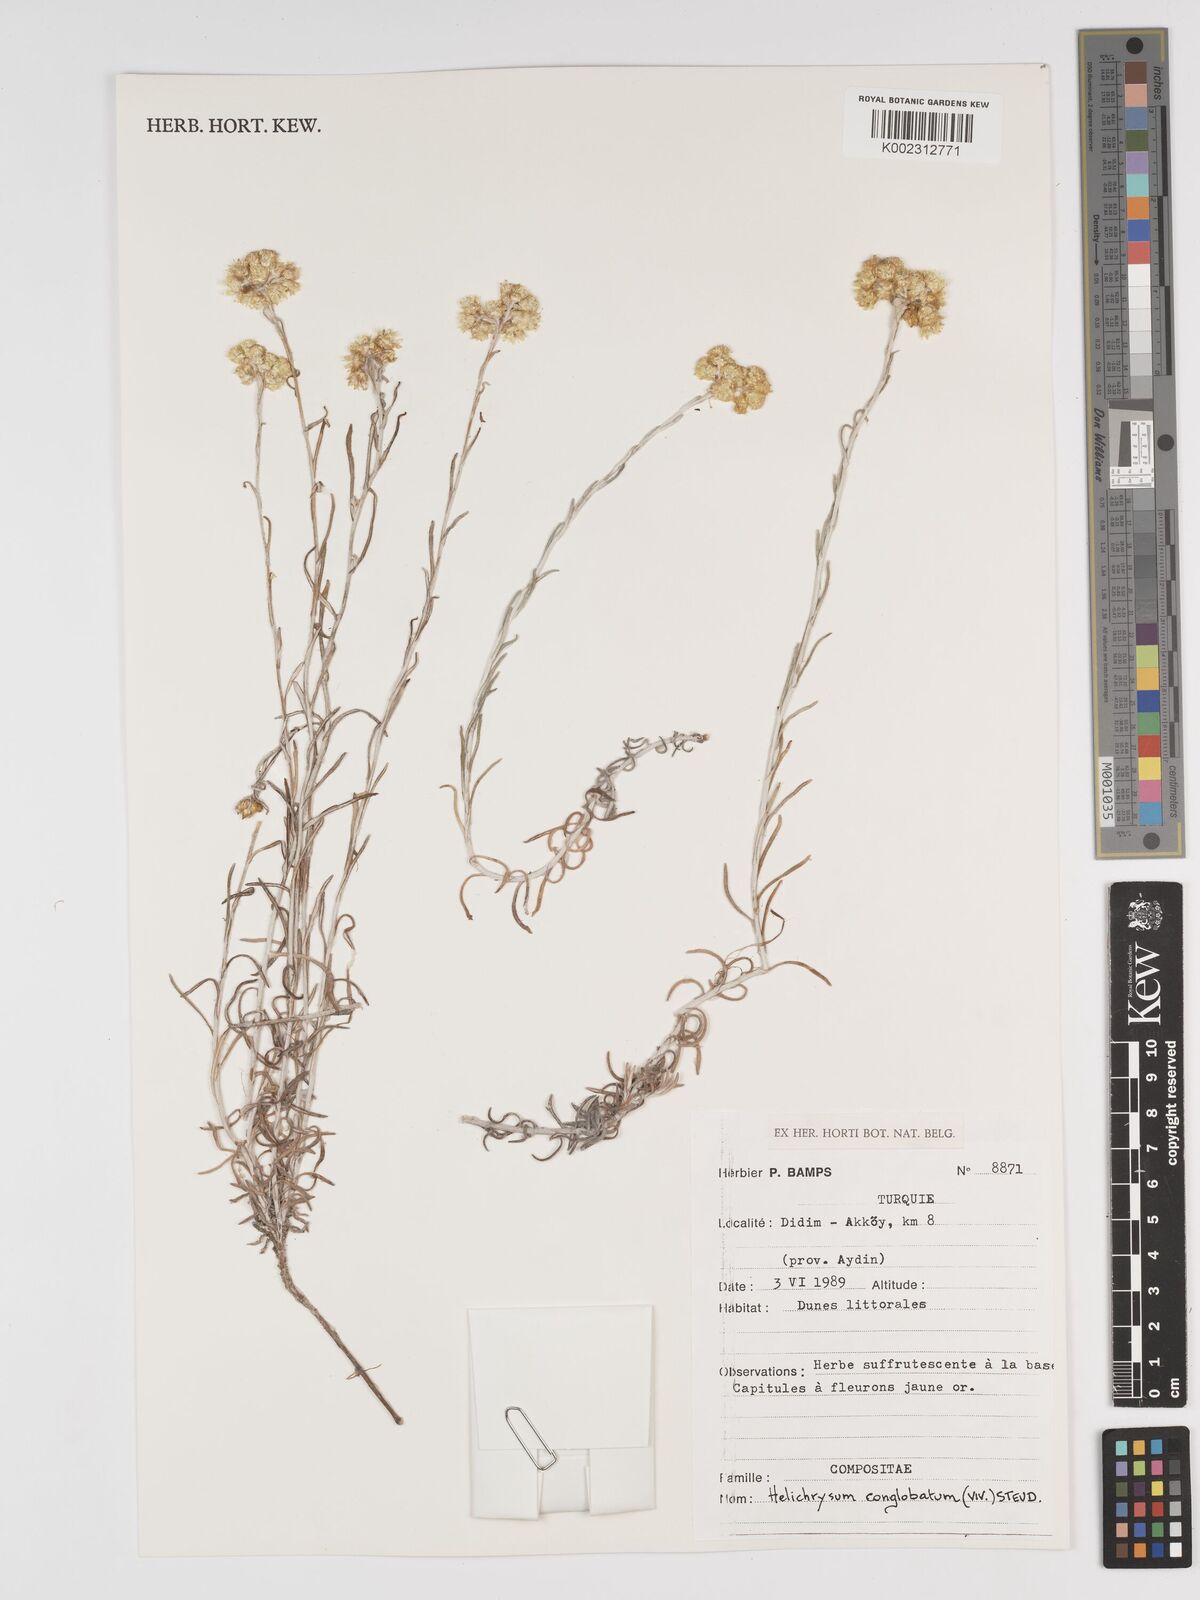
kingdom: Plantae
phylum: Tracheophyta
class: Magnoliopsida
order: Asterales
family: Asteraceae
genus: Helichrysum
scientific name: Helichrysum stoechas
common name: Goldilocks
